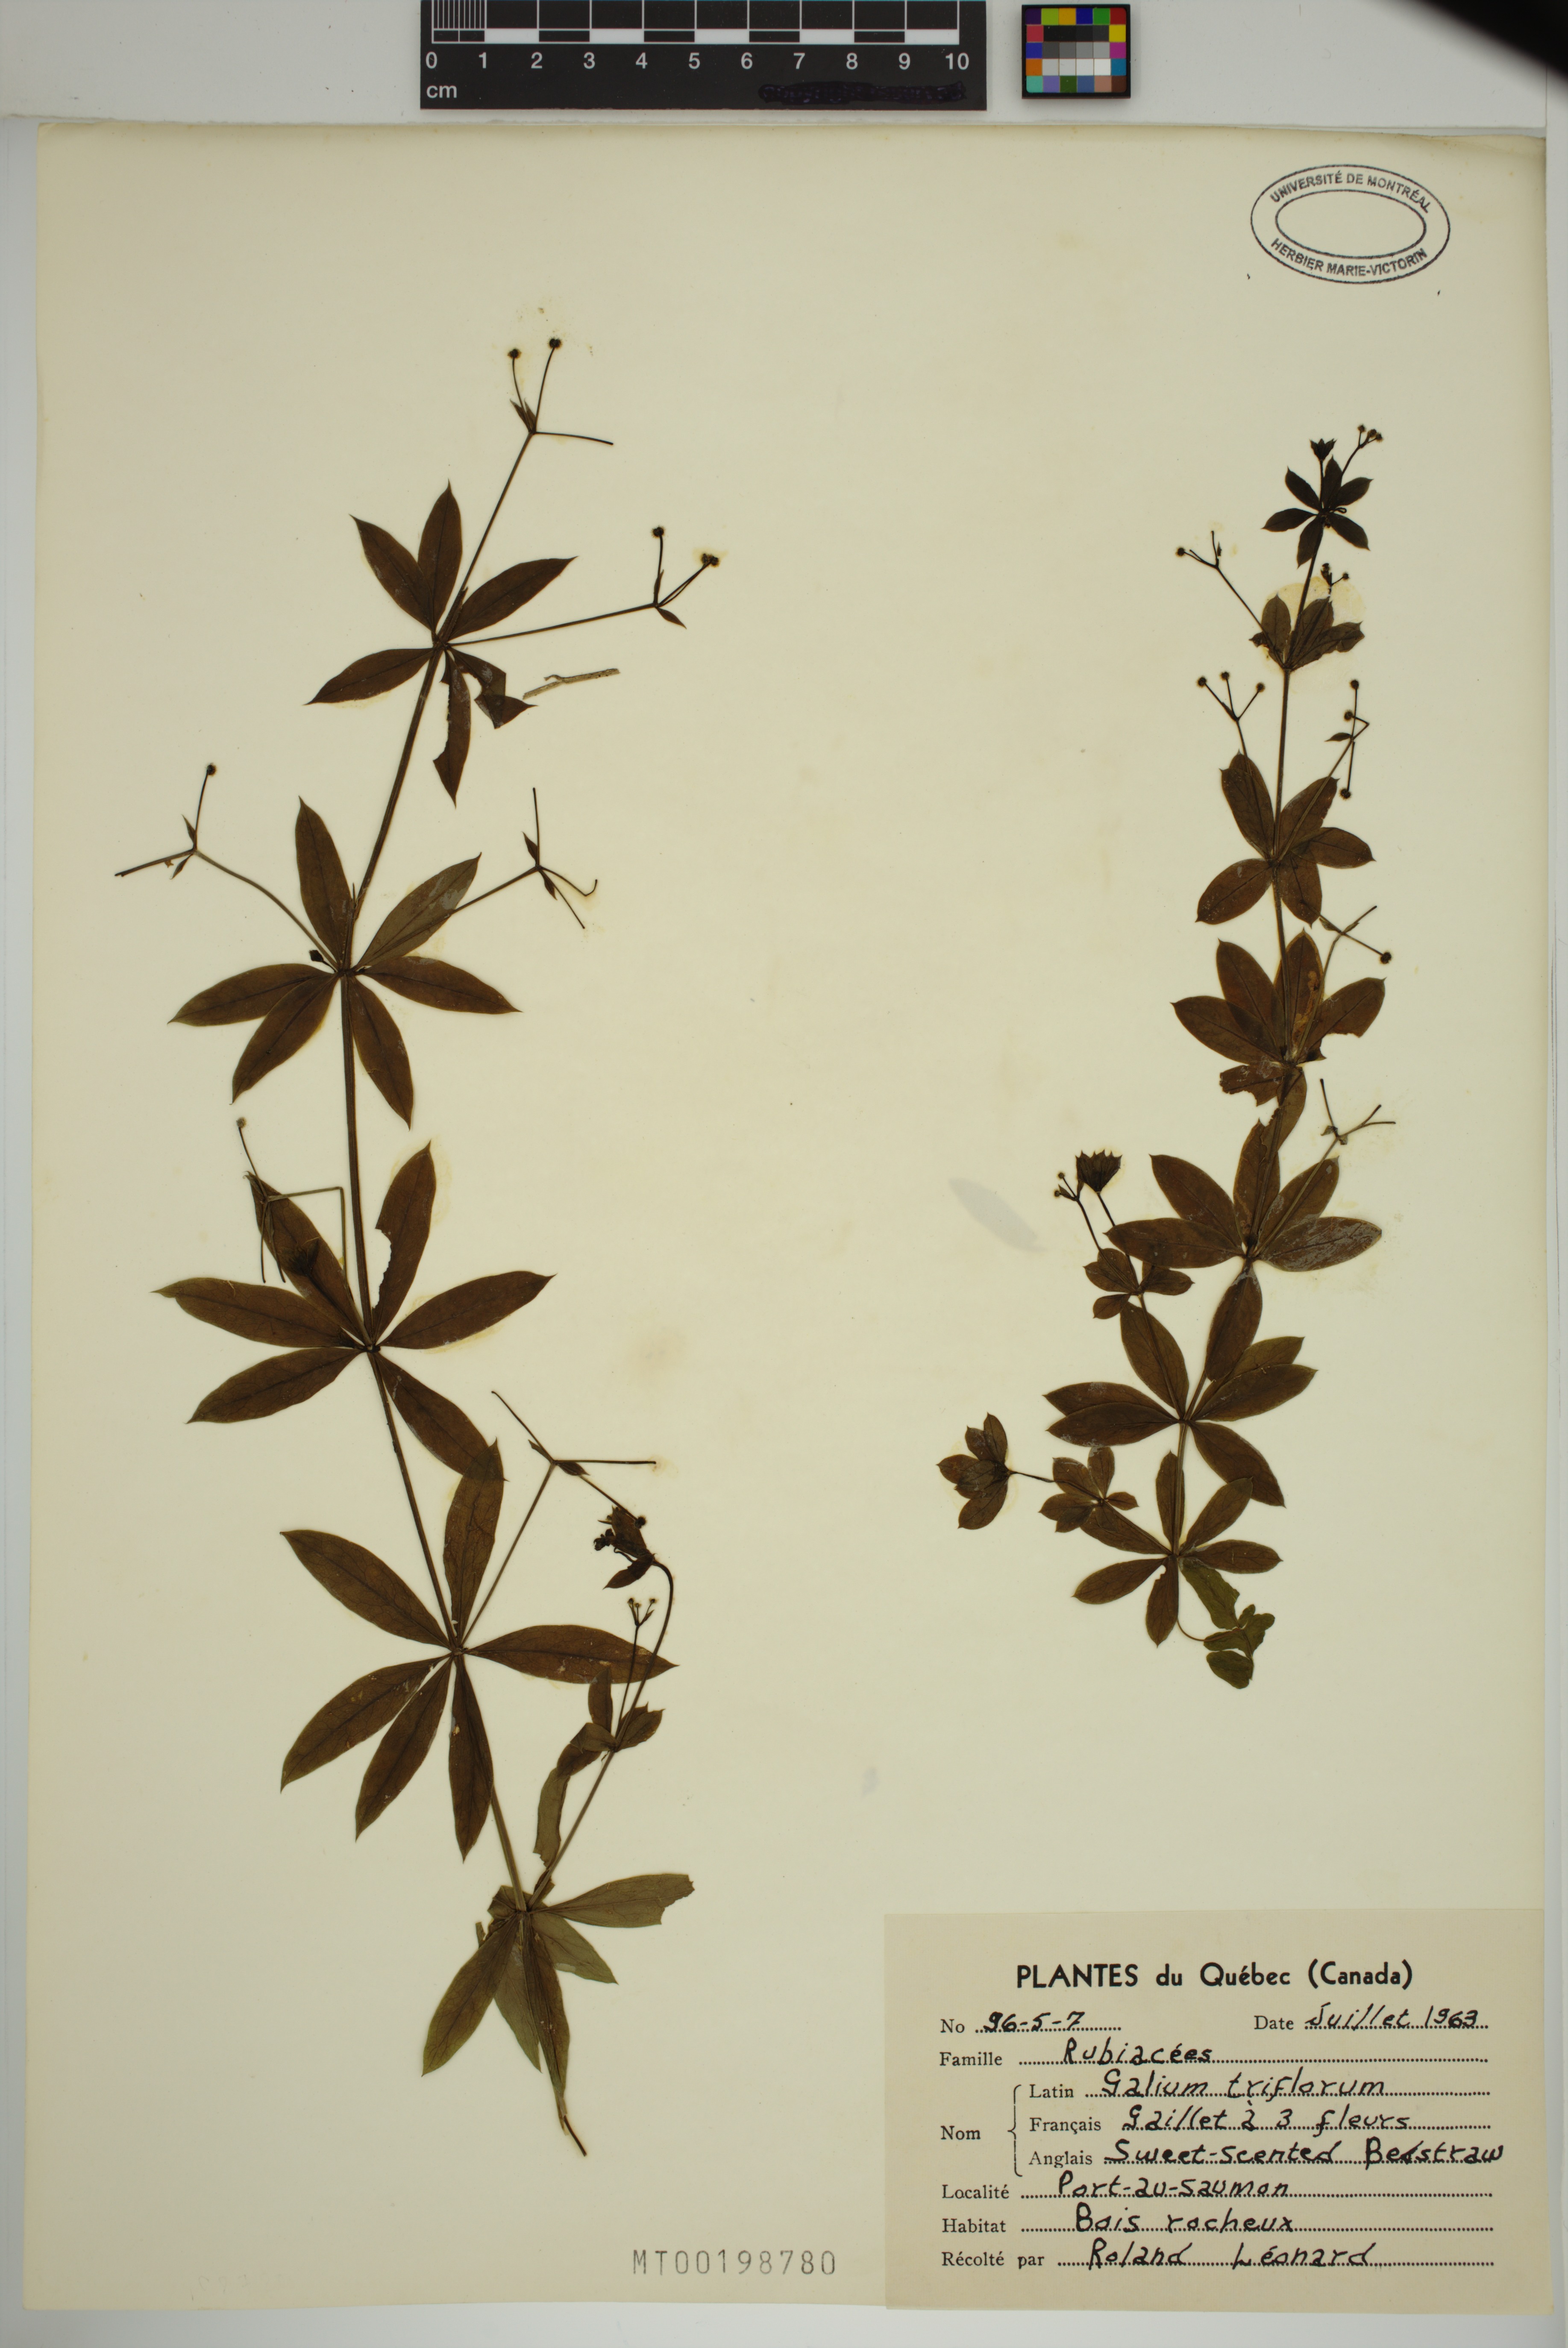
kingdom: Plantae
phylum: Tracheophyta
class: Magnoliopsida
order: Gentianales
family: Rubiaceae
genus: Galium
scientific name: Galium triflorum
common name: Fragrant bedstraw
